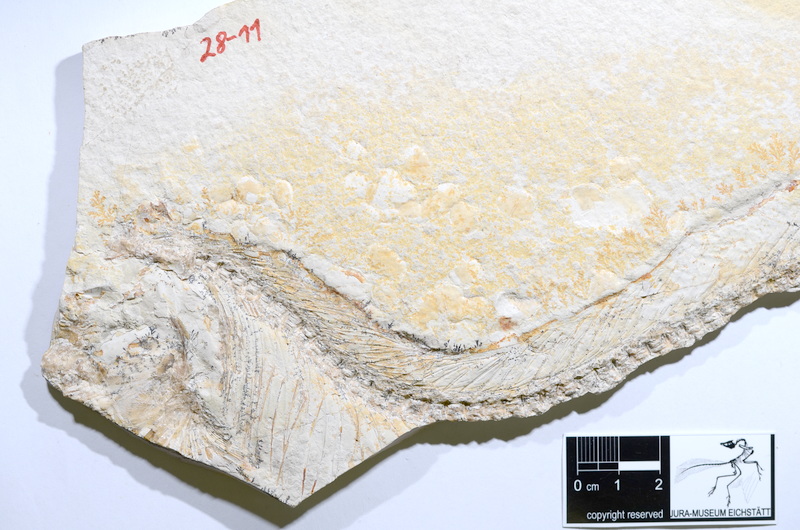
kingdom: Animalia
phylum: Chordata
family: Allothrissopidae
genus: Allothrissops
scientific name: Allothrissops salmoneus
